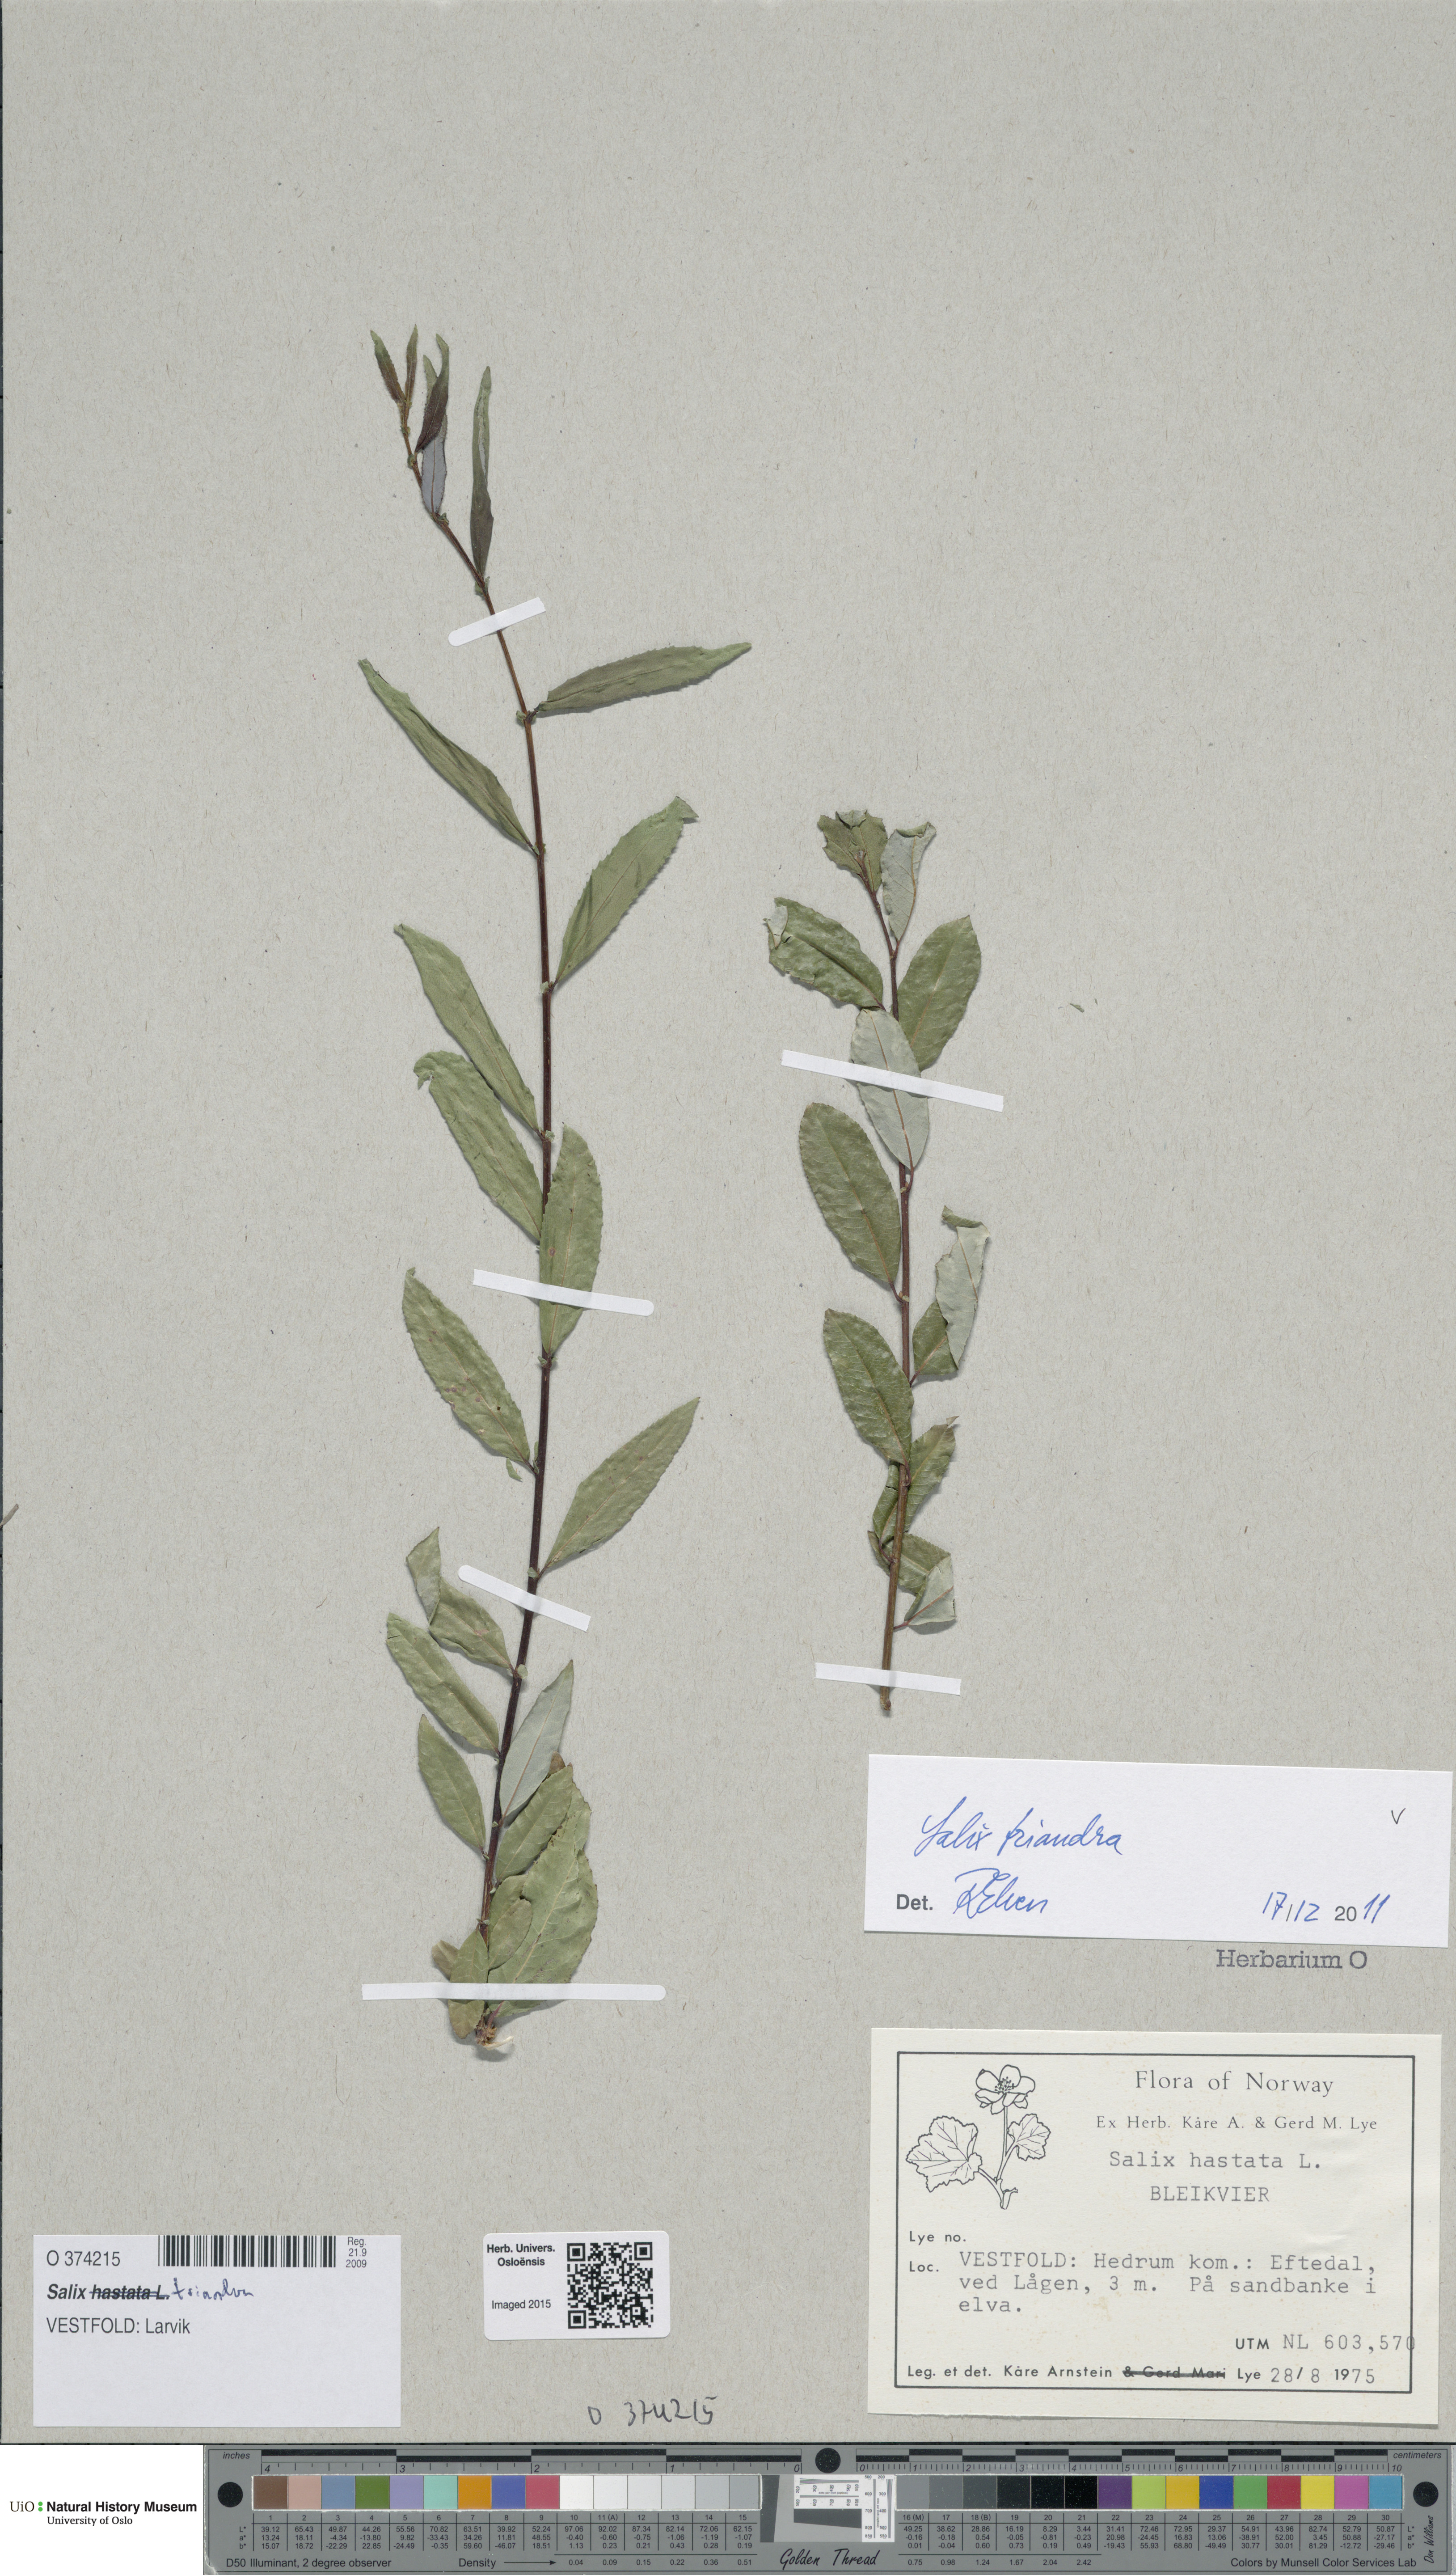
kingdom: Plantae
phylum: Tracheophyta
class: Magnoliopsida
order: Malpighiales
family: Salicaceae
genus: Salix
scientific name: Salix triandra
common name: Almond willow
